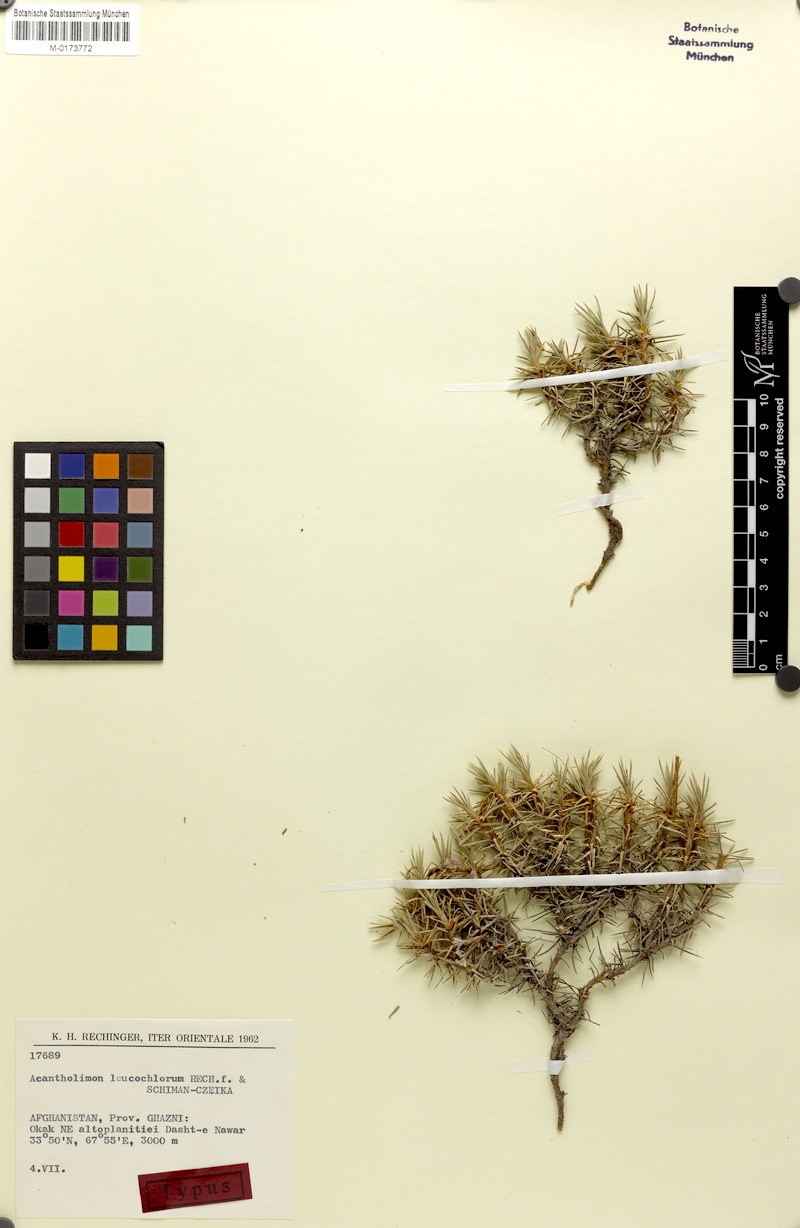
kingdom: Plantae
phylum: Tracheophyta
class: Magnoliopsida
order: Caryophyllales
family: Plumbaginaceae
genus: Acantholimon
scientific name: Acantholimon leucochlorum
